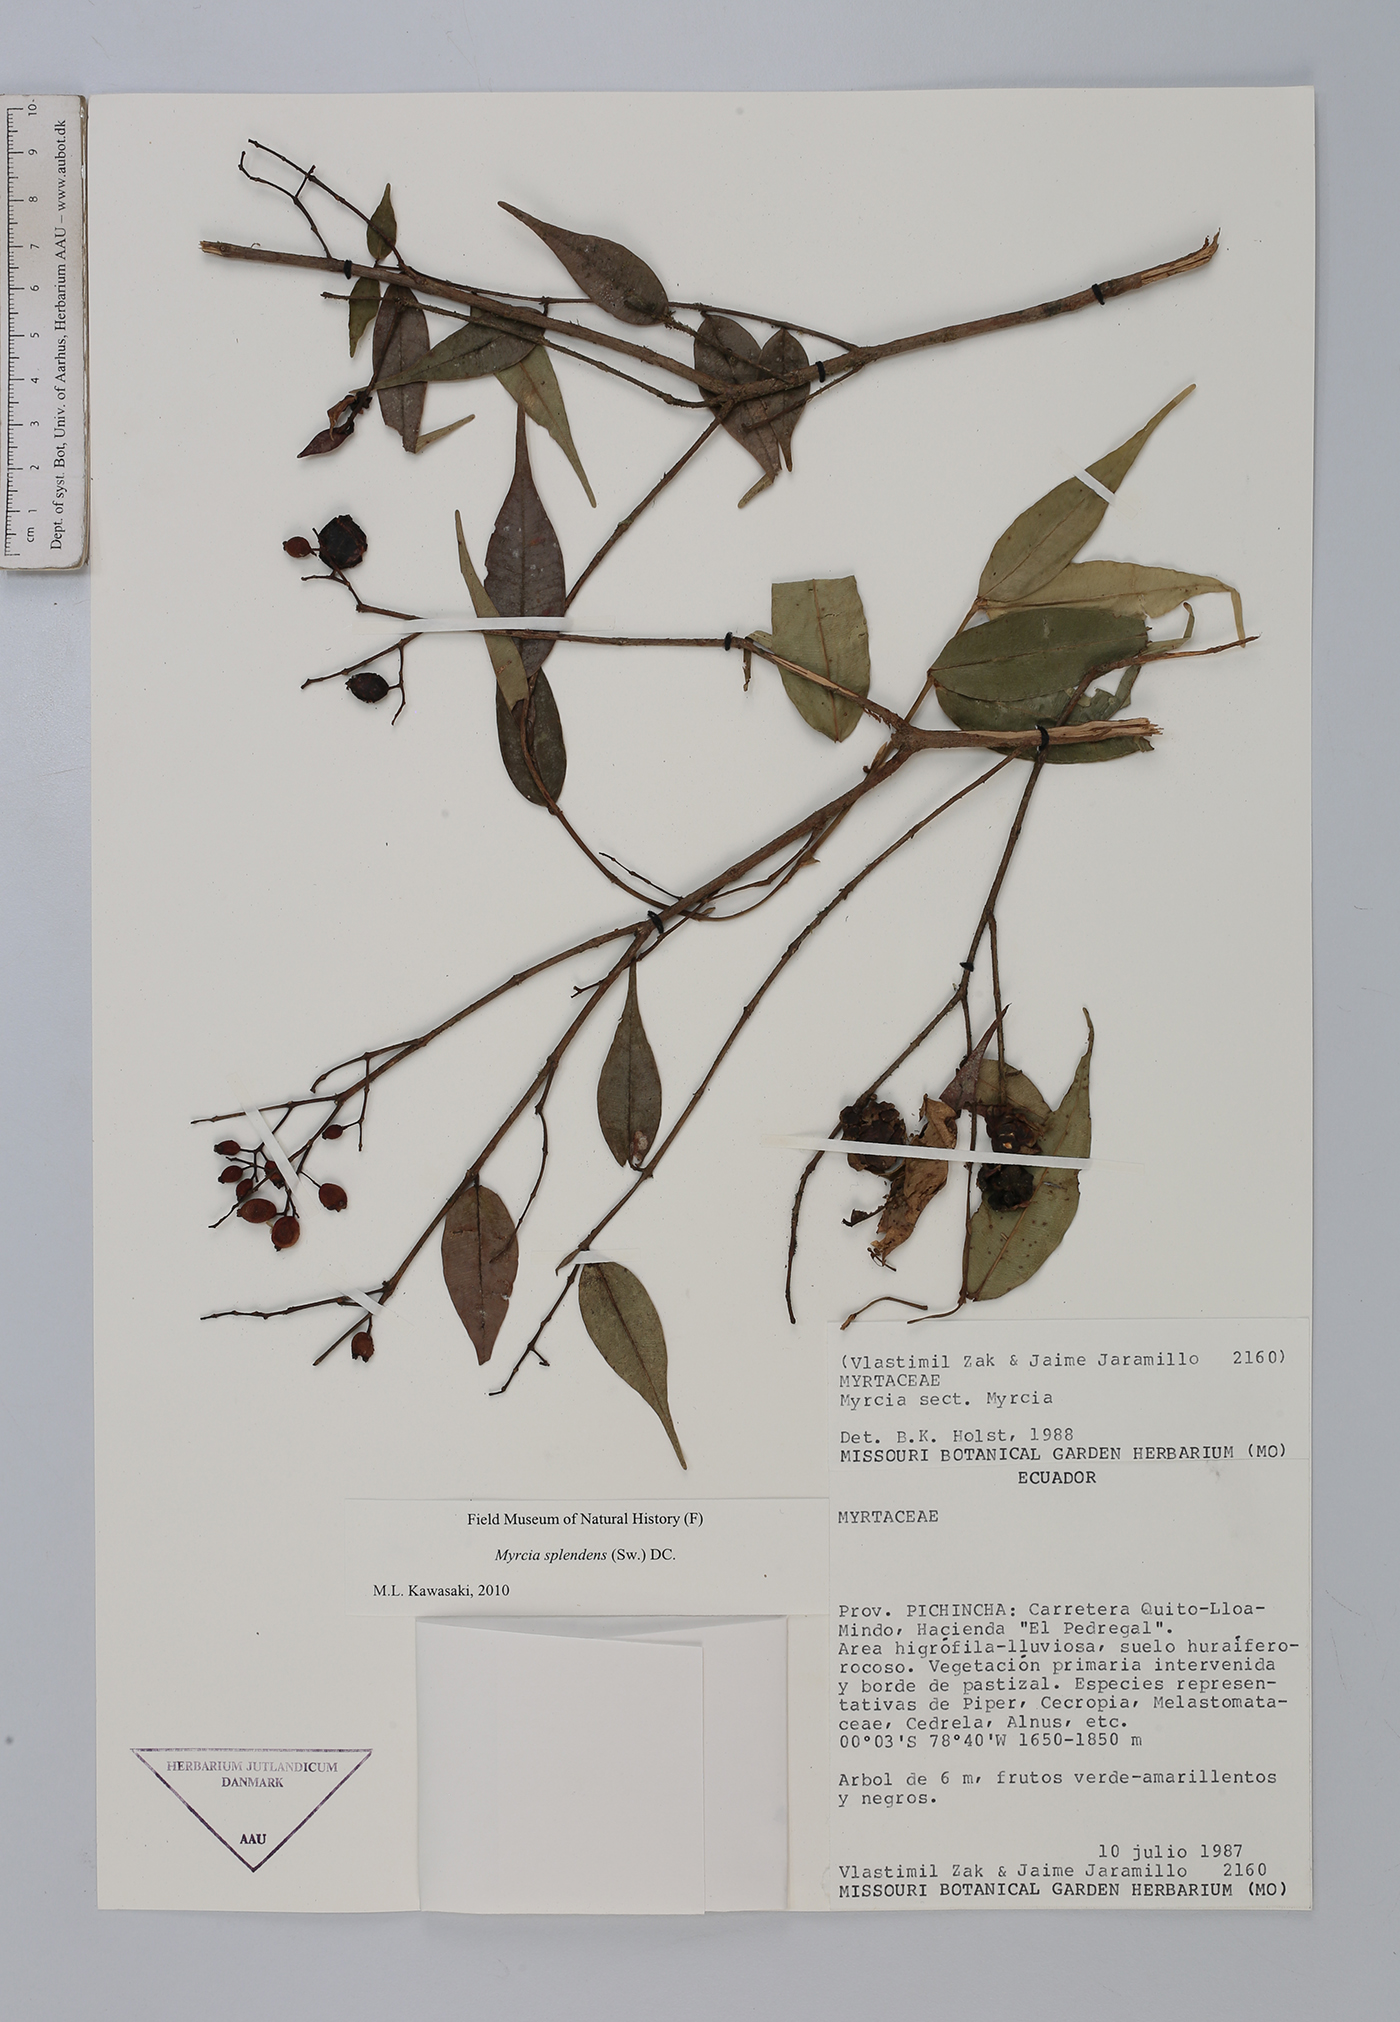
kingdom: Plantae
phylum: Tracheophyta
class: Magnoliopsida
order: Myrtales
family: Myrtaceae
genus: Myrcia
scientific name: Myrcia splendens
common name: Surinam cherry
